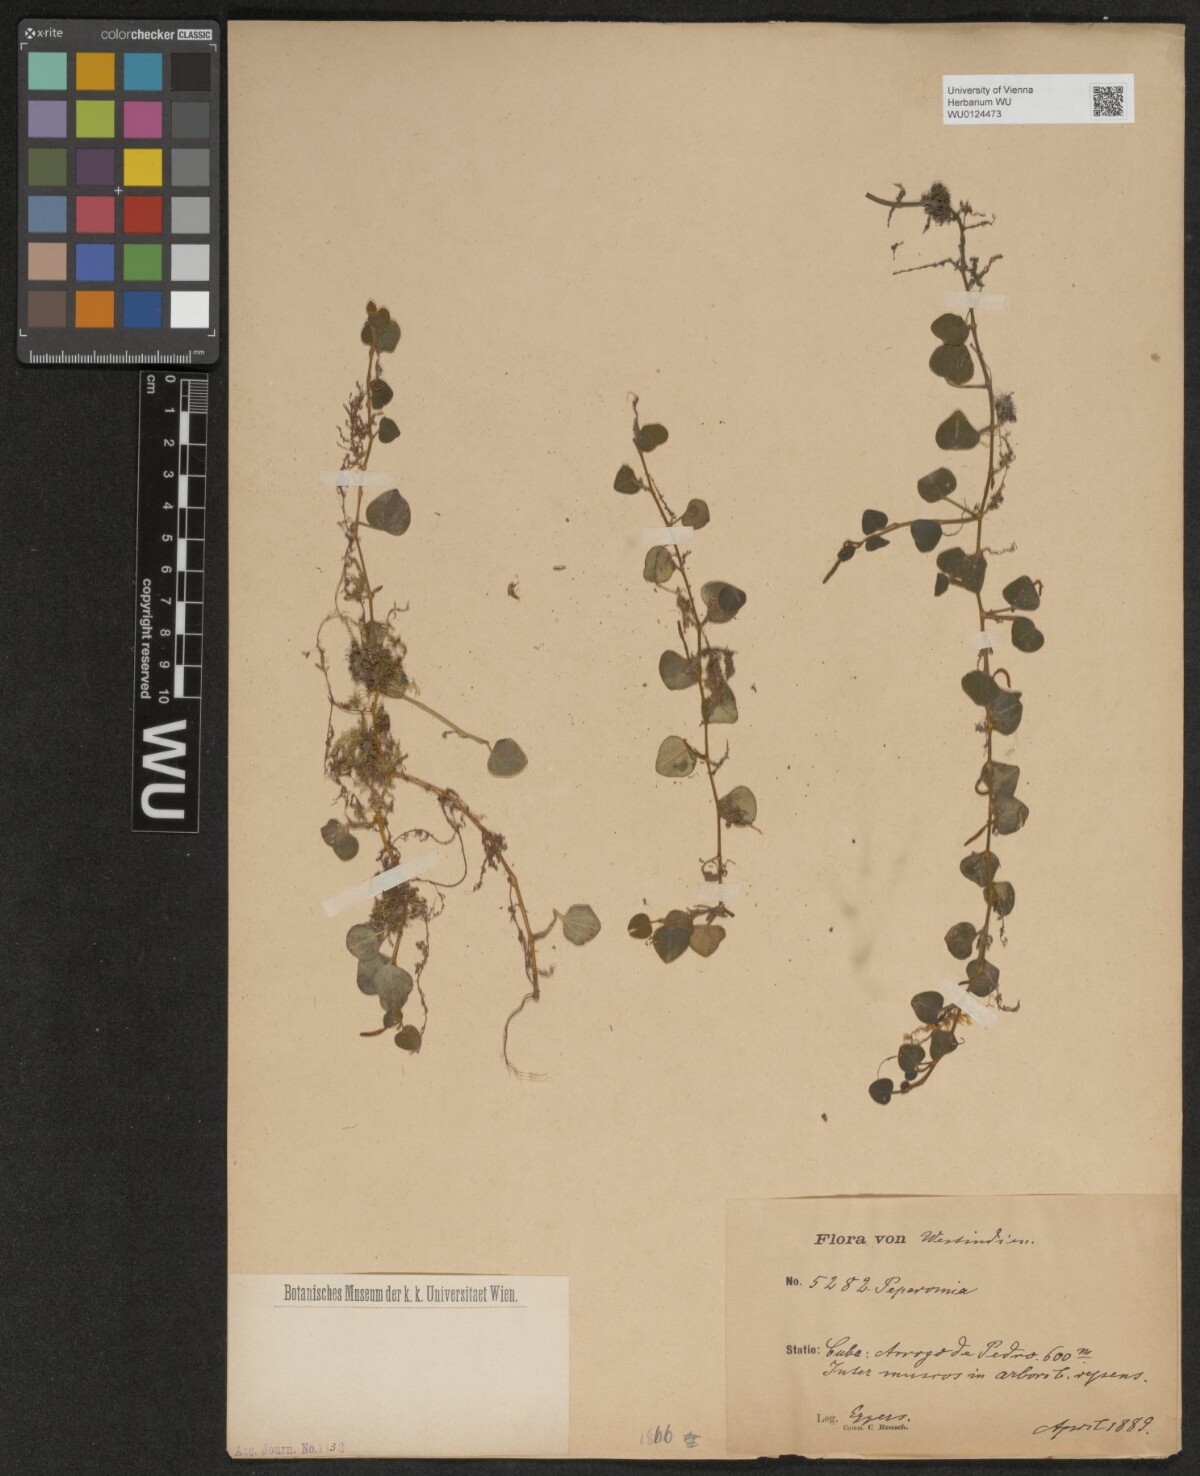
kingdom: Plantae
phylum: Tracheophyta
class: Magnoliopsida
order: Piperales
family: Piperaceae
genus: Peperomia
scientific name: Peperomia
